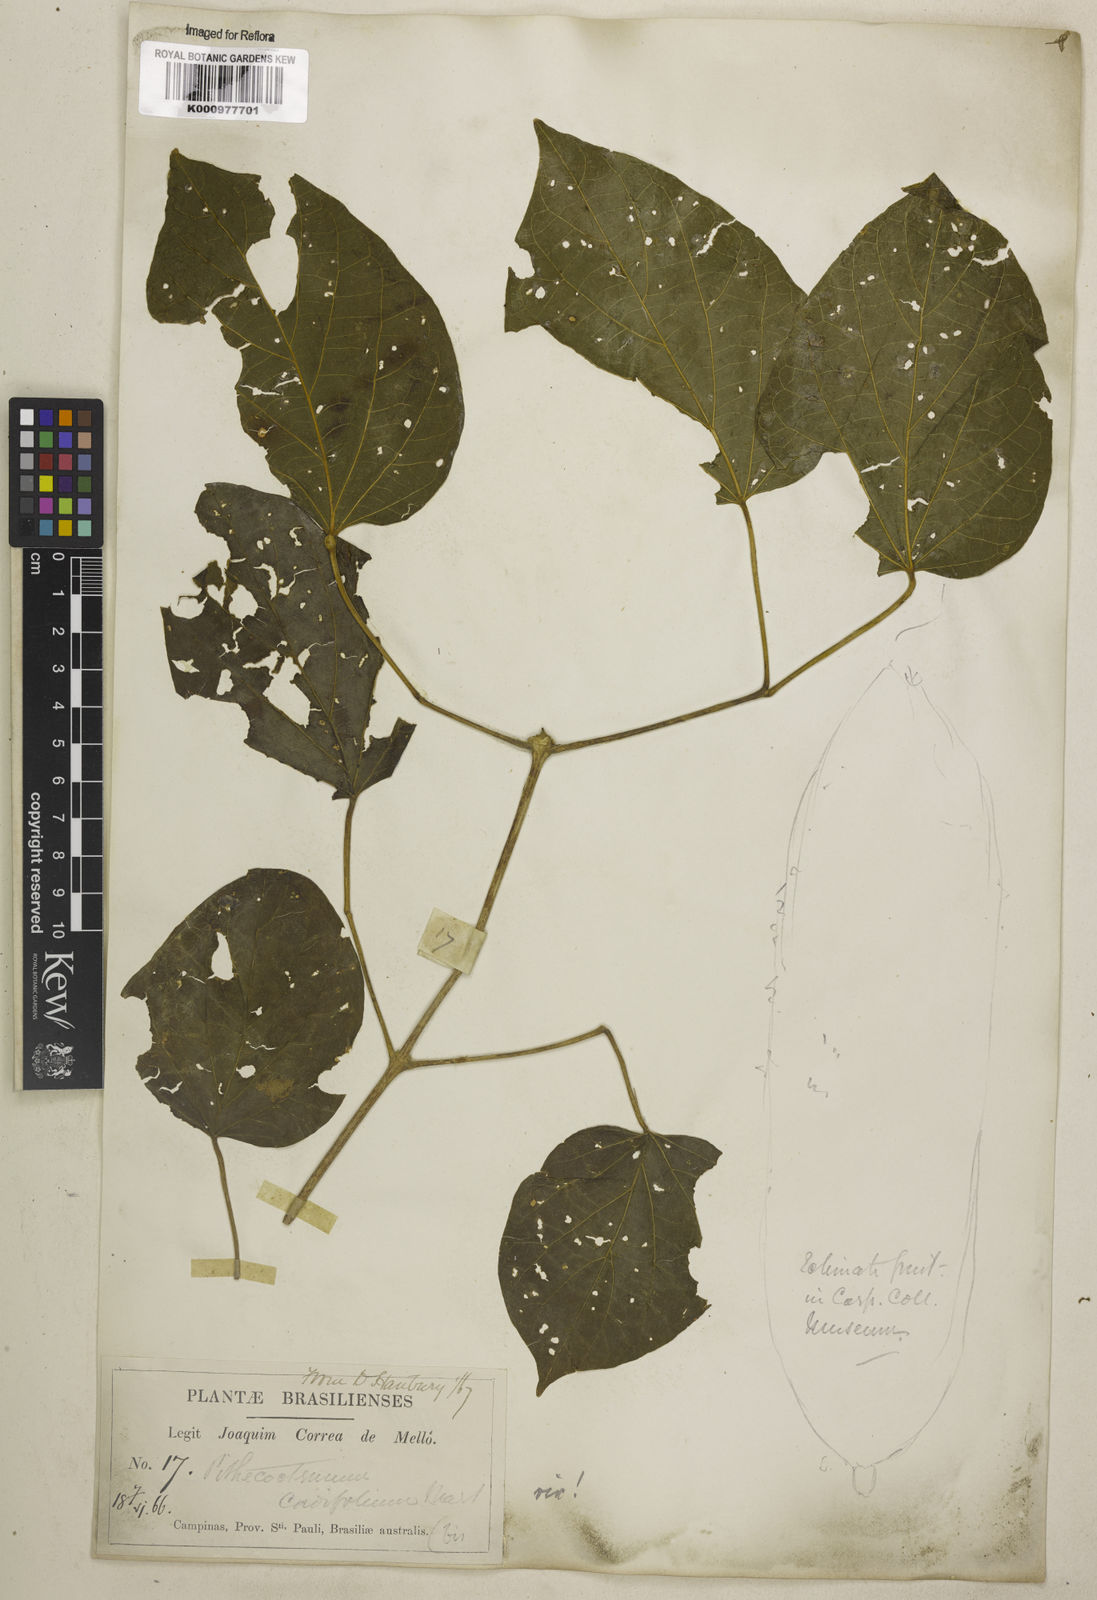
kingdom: Plantae
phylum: Tracheophyta
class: Magnoliopsida
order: Lamiales
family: Bignoniaceae
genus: Amphilophium
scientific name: Amphilophium crucigerum
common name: Monkey comb
